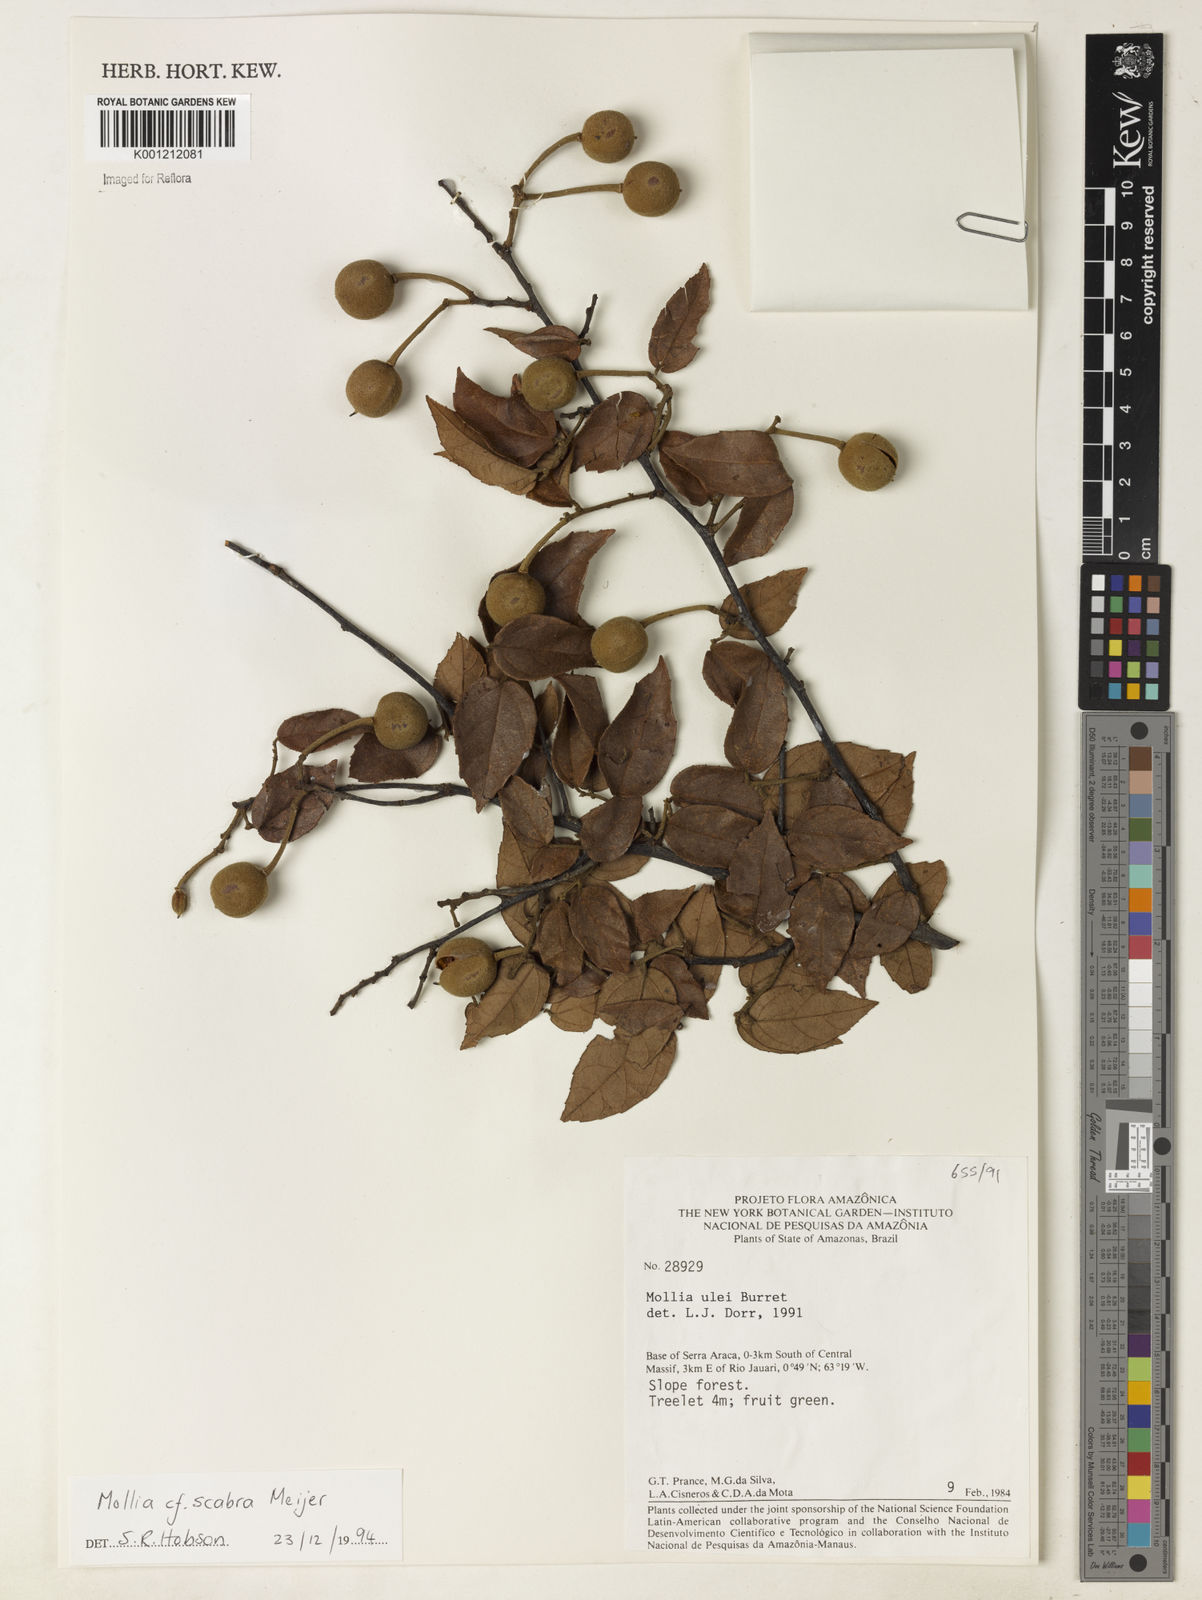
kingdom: Plantae
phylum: Tracheophyta
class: Magnoliopsida
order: Malvales
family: Malvaceae
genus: Mollia
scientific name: Mollia ulei
